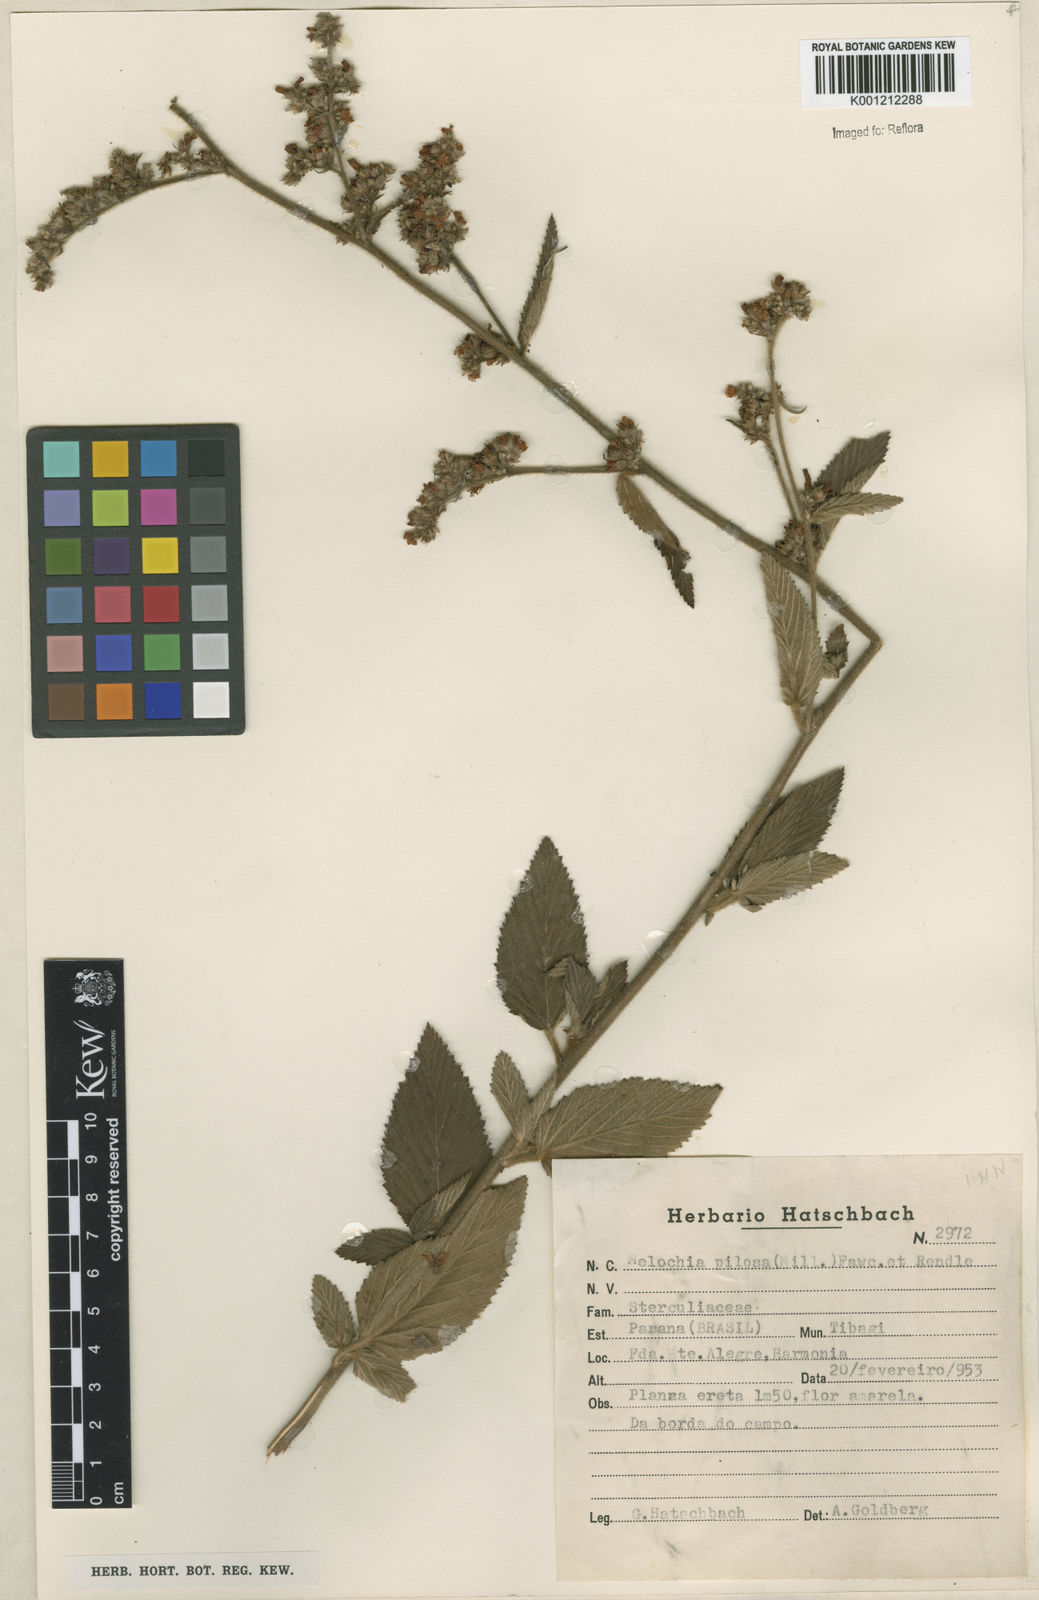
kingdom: Plantae
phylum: Tracheophyta
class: Magnoliopsida
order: Malvales
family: Malvaceae
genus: Melochia
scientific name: Melochia pilosa
